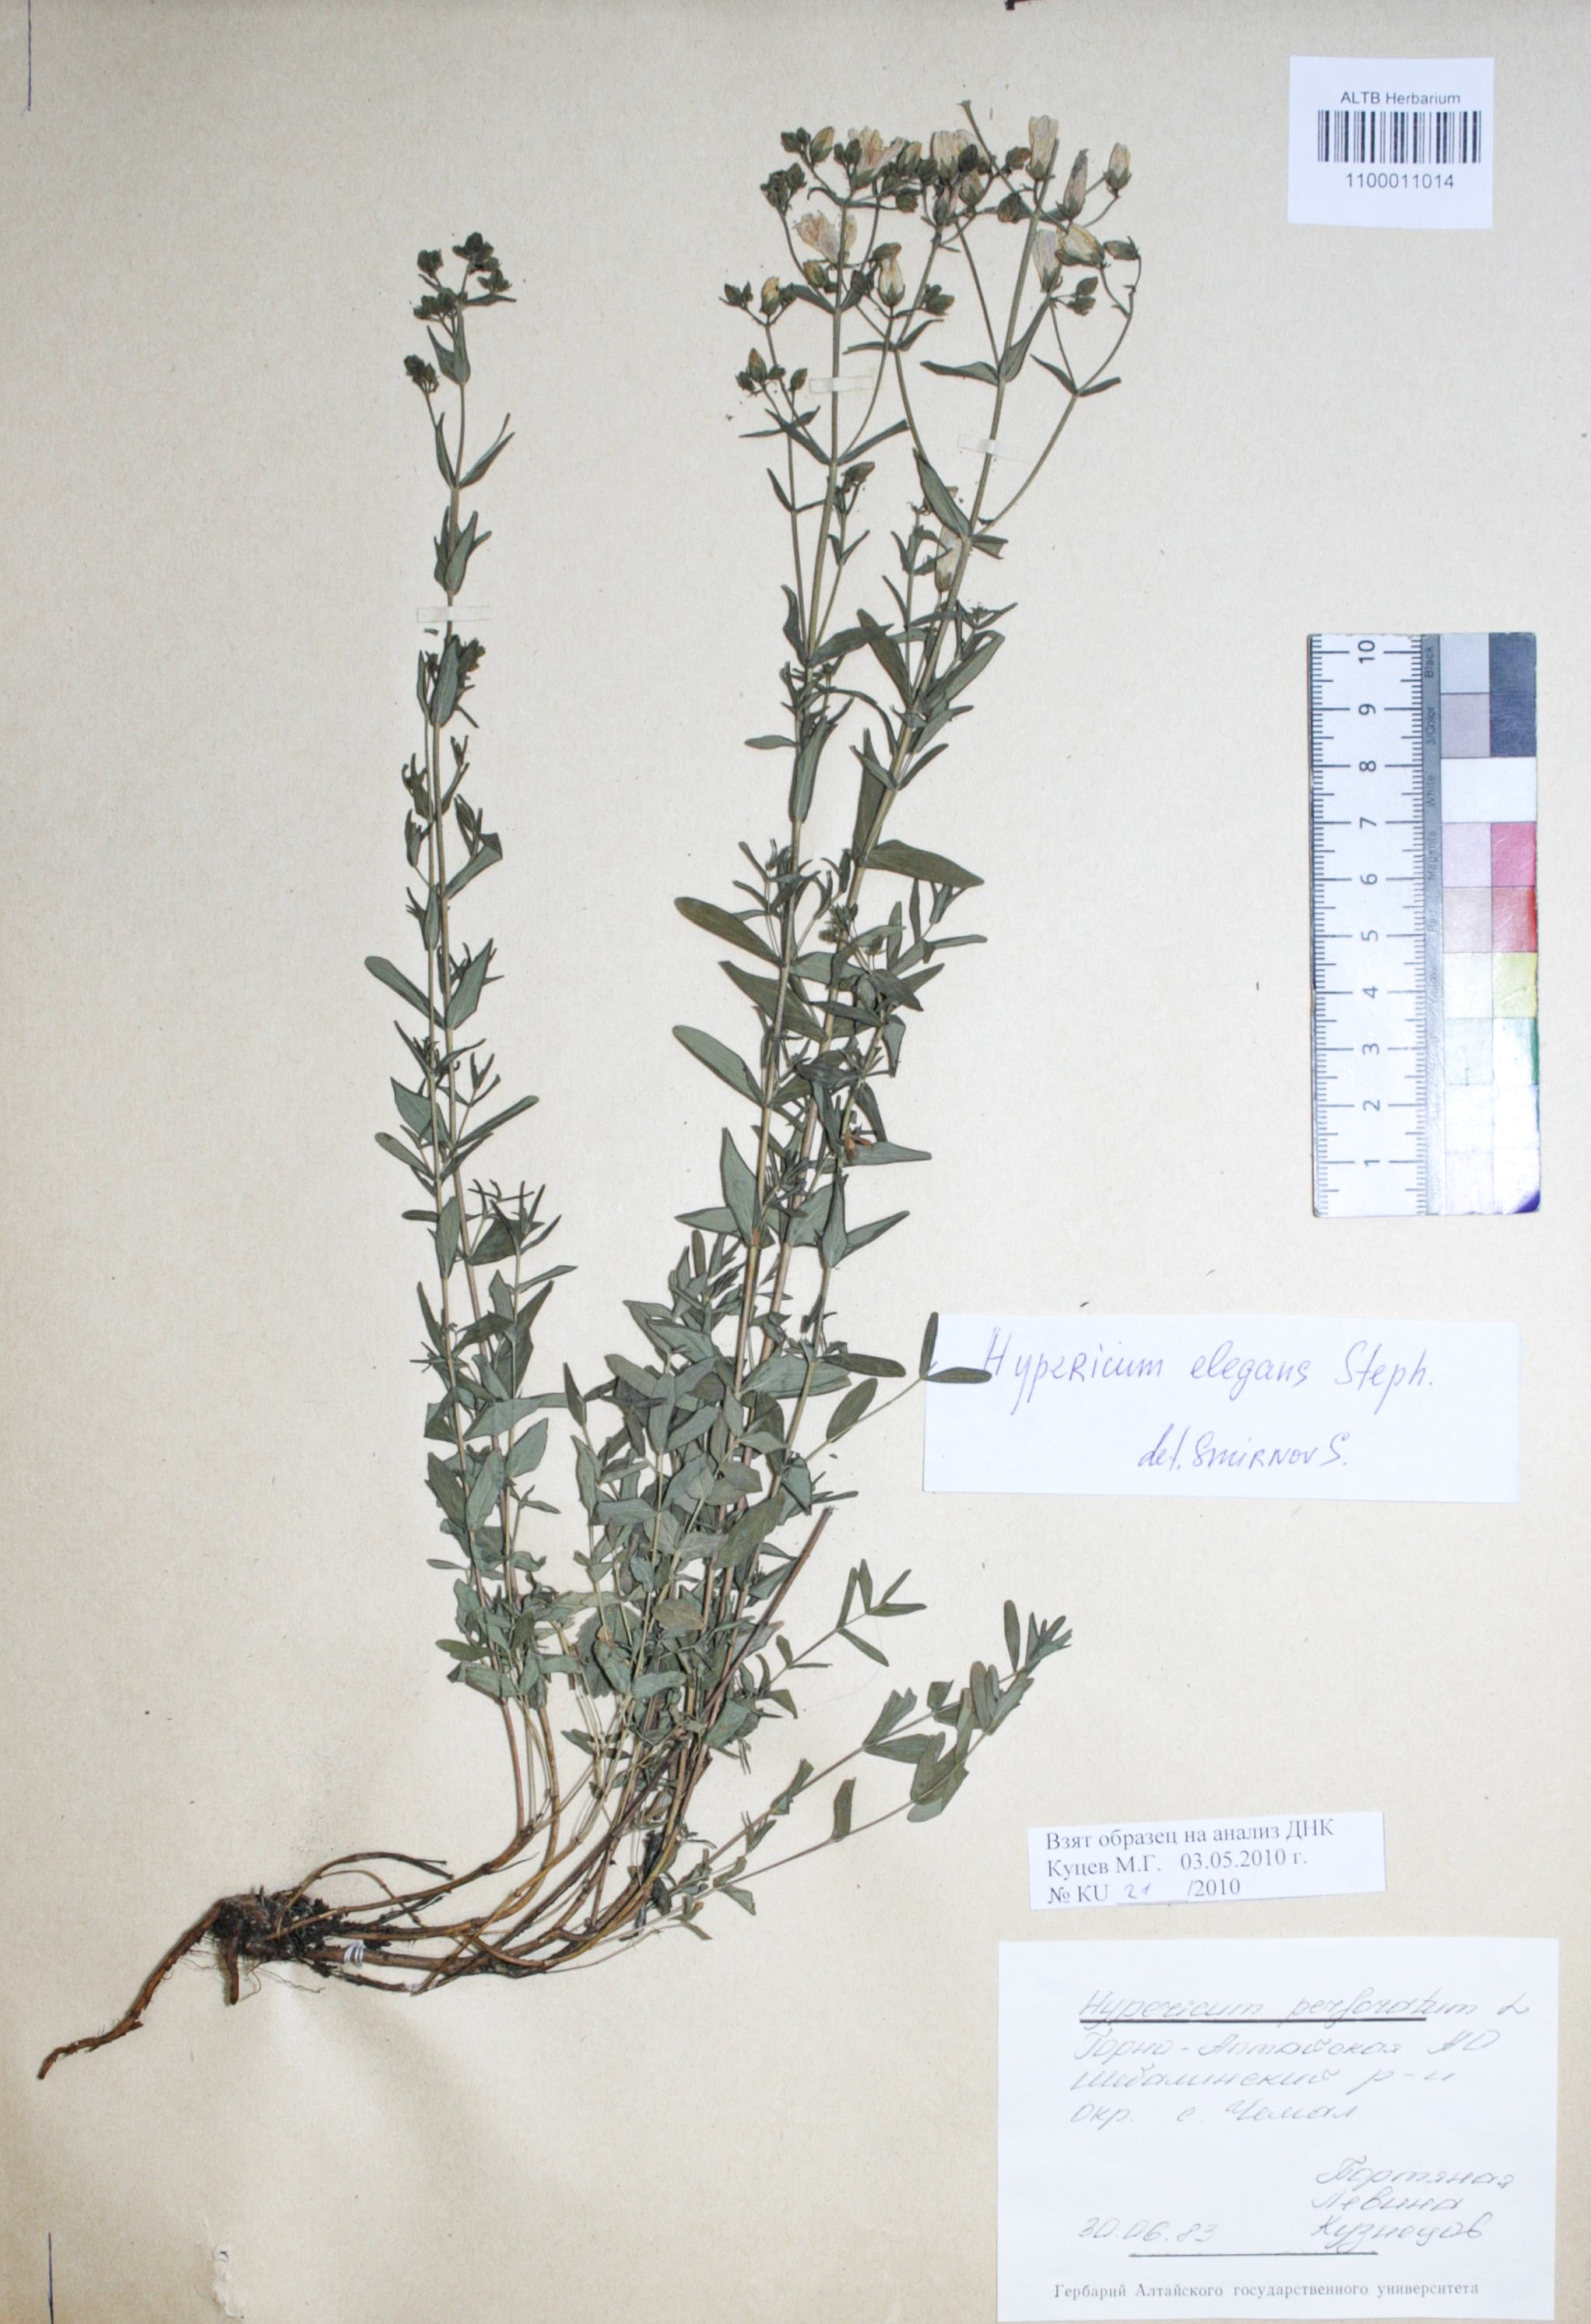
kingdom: Plantae
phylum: Tracheophyta
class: Magnoliopsida
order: Malpighiales
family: Hypericaceae
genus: Hypericum
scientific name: Hypericum perforatum
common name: Common st. johnswort
